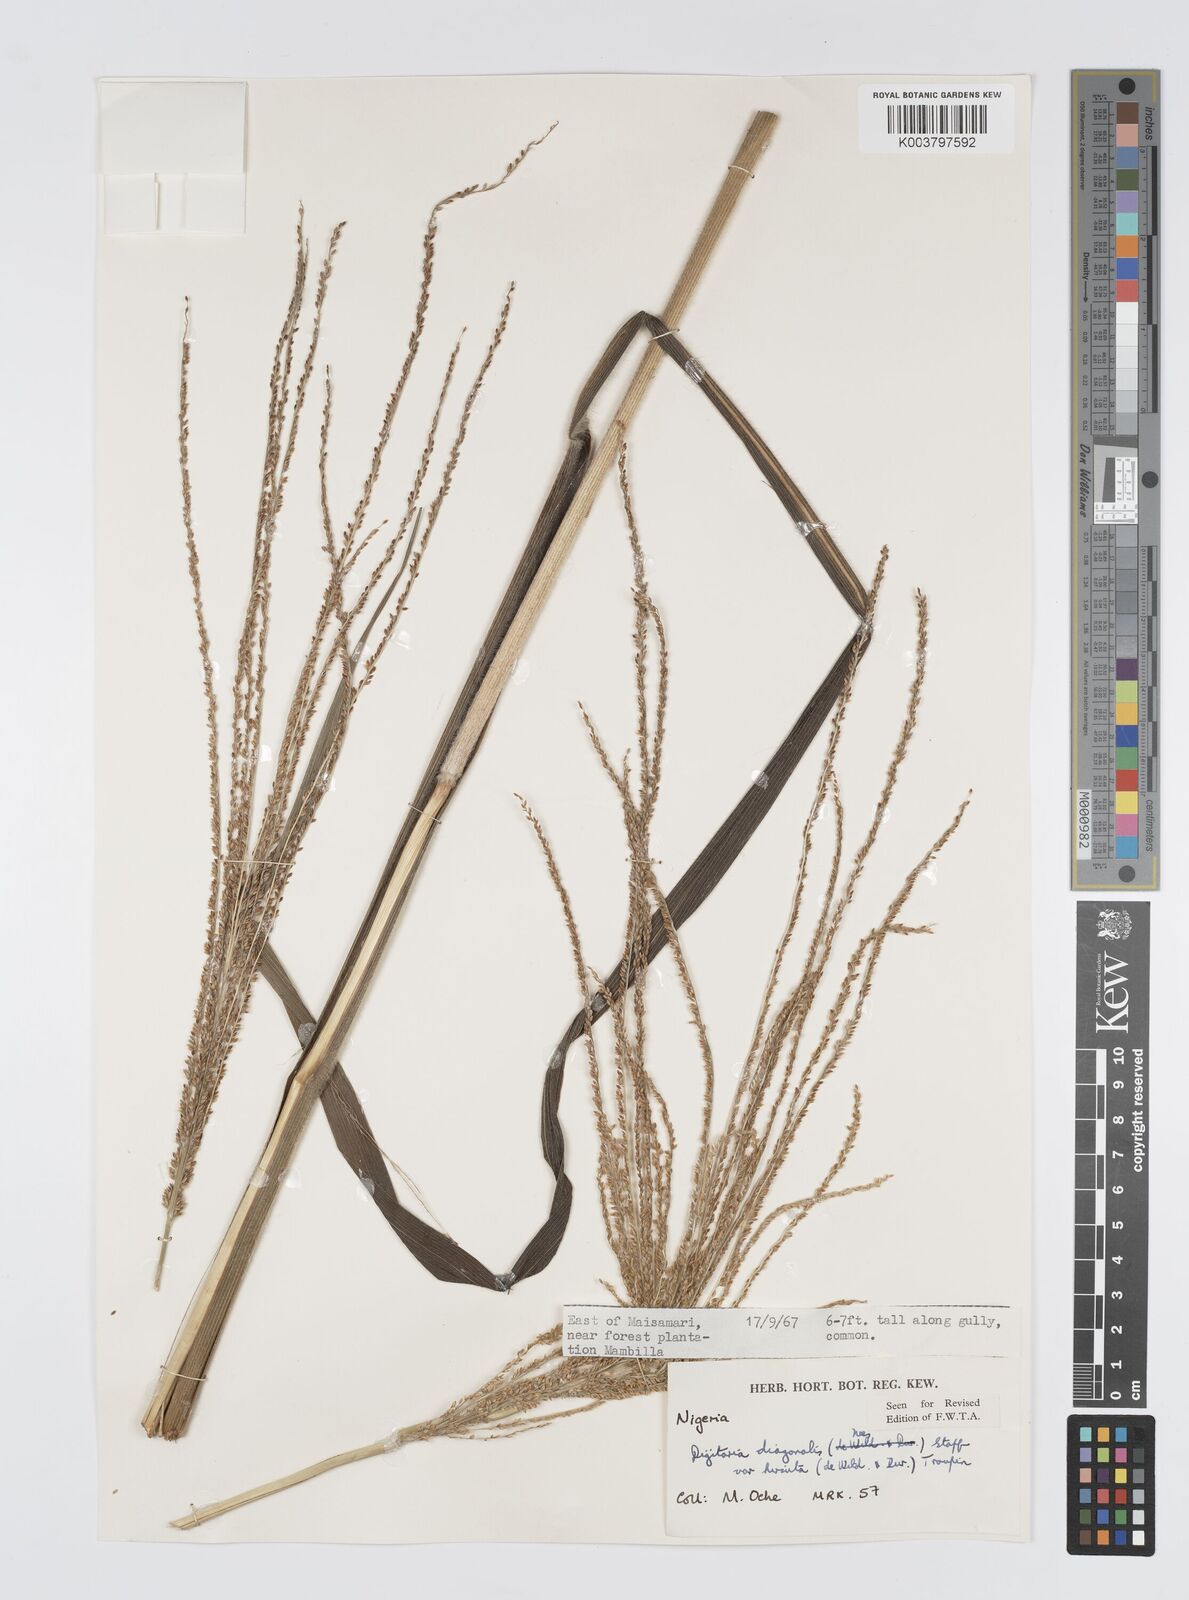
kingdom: Plantae
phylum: Tracheophyta
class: Liliopsida
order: Poales
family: Poaceae
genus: Digitaria
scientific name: Digitaria diagonalis
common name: Brown-seed finger grass
